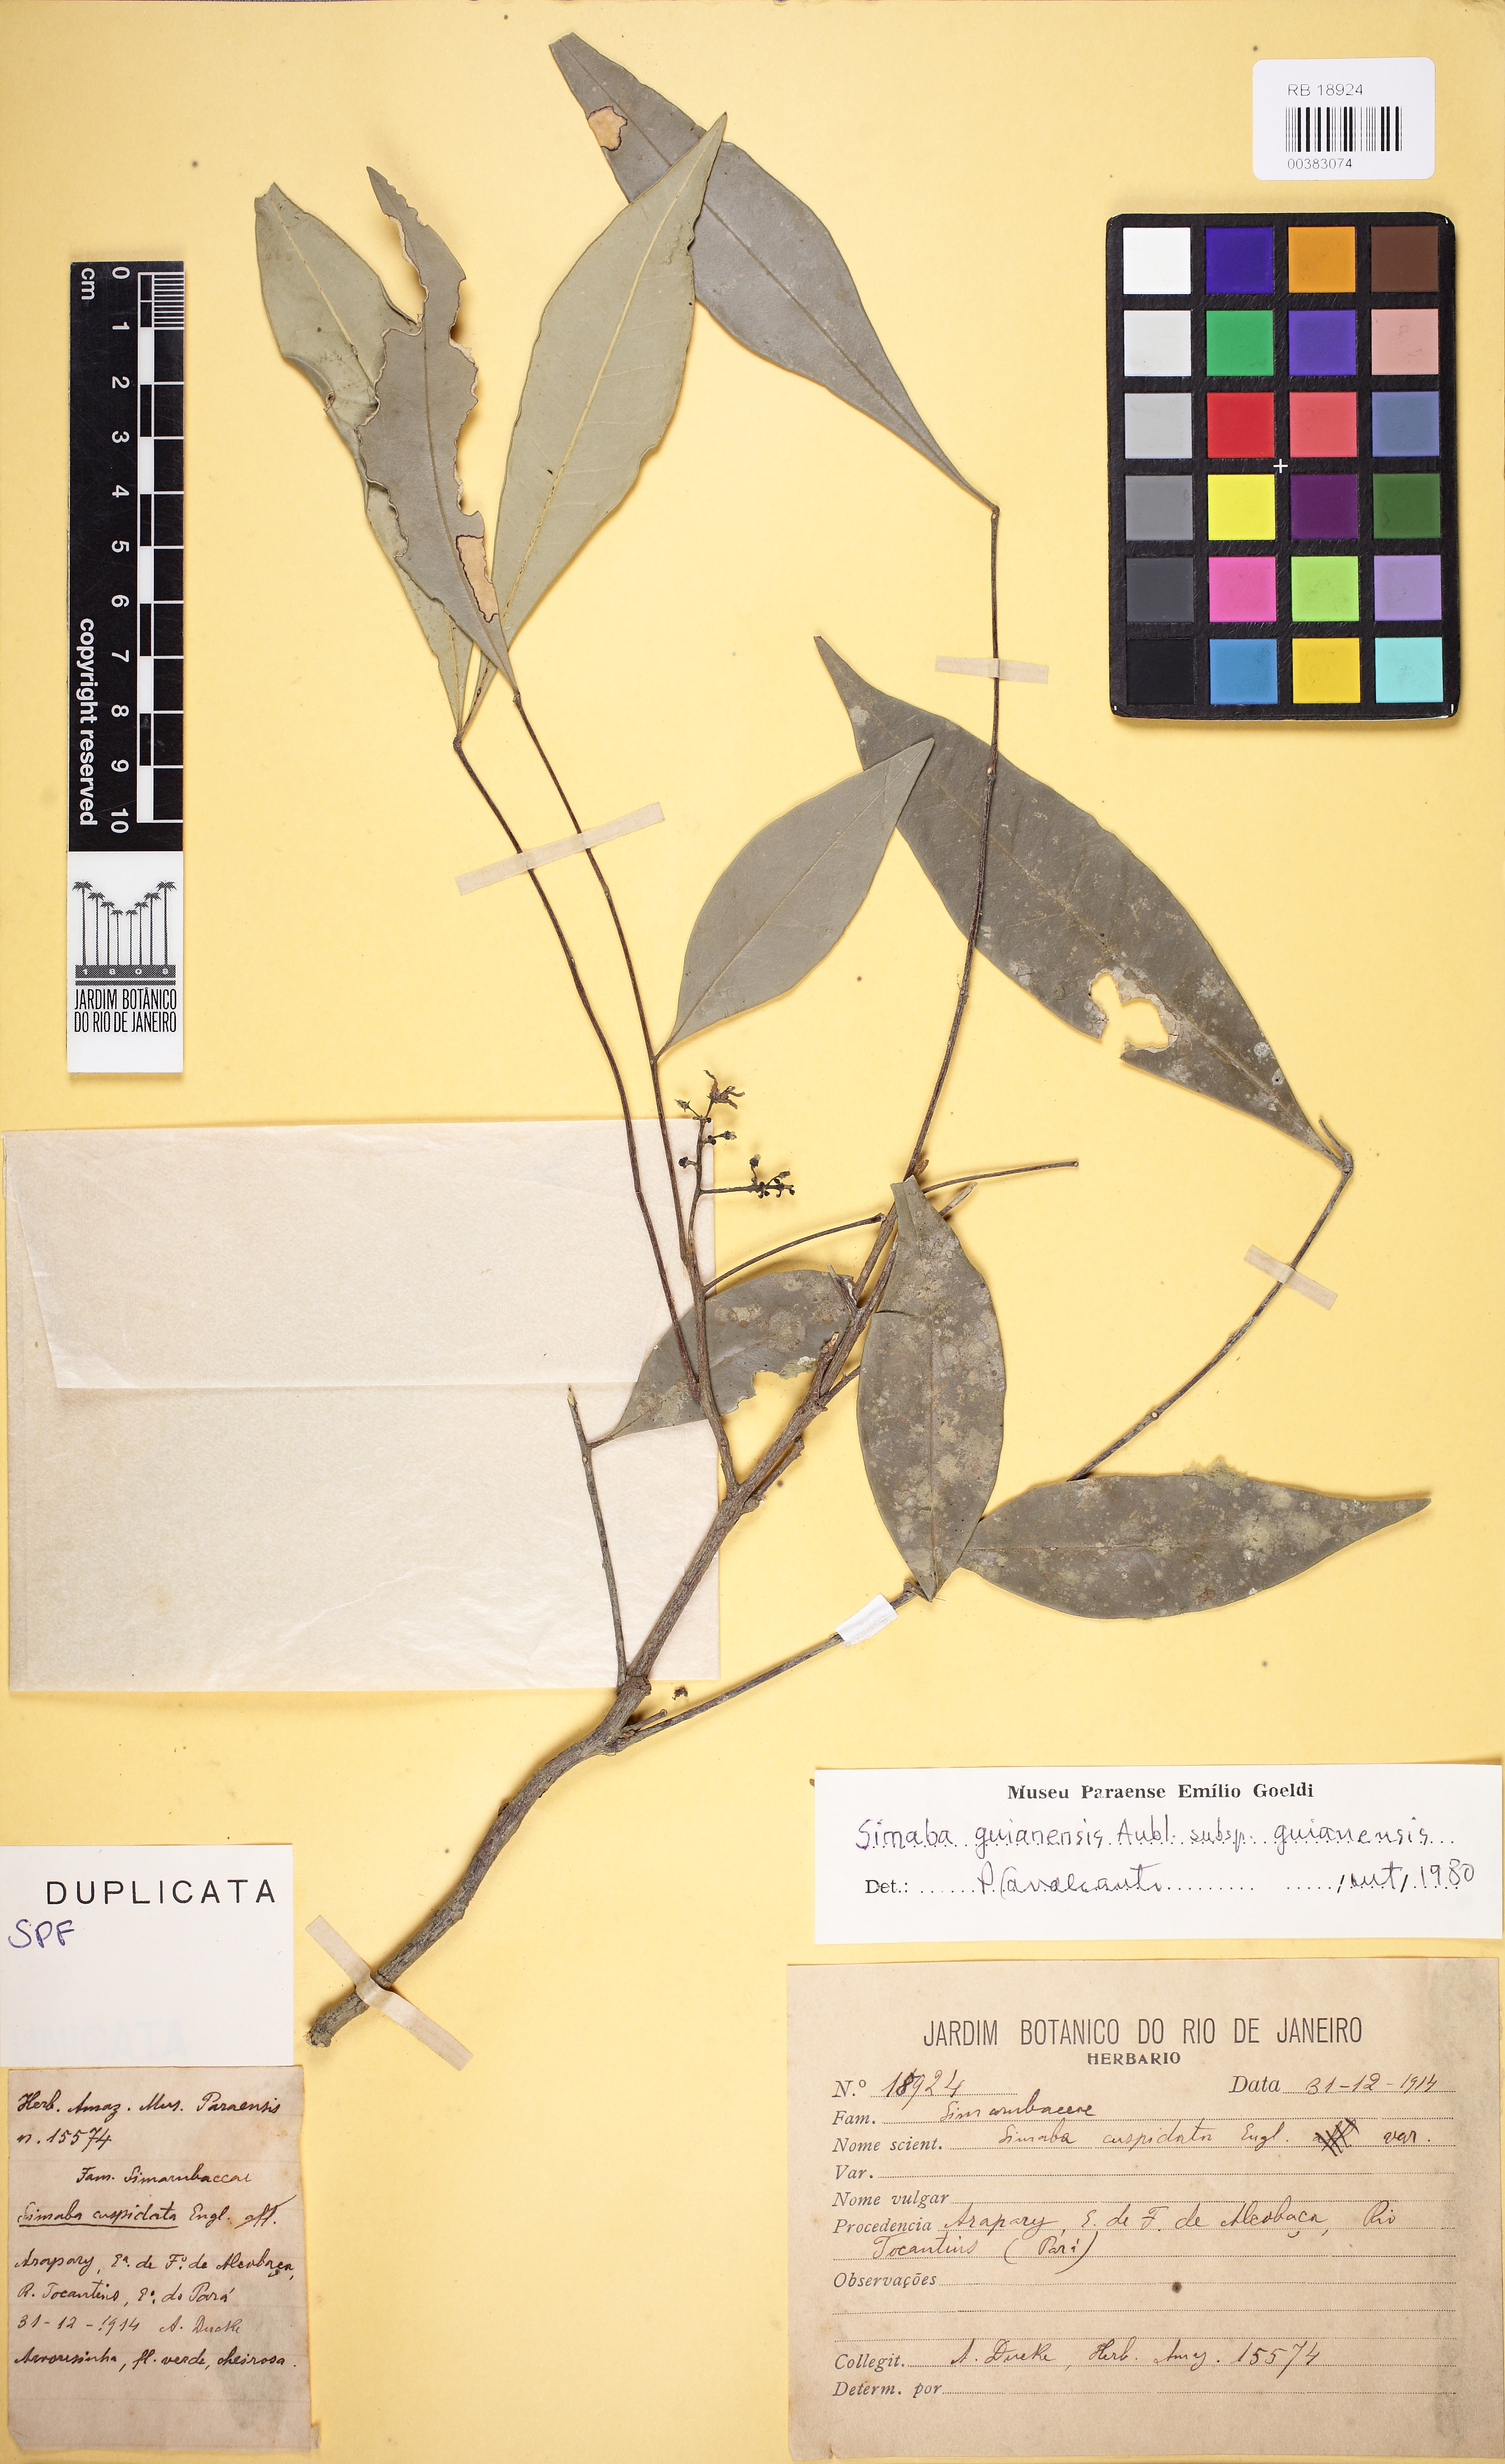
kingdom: Plantae
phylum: Tracheophyta
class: Magnoliopsida
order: Sapindales
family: Simaroubaceae
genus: Simaba
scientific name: Simaba guianensis
